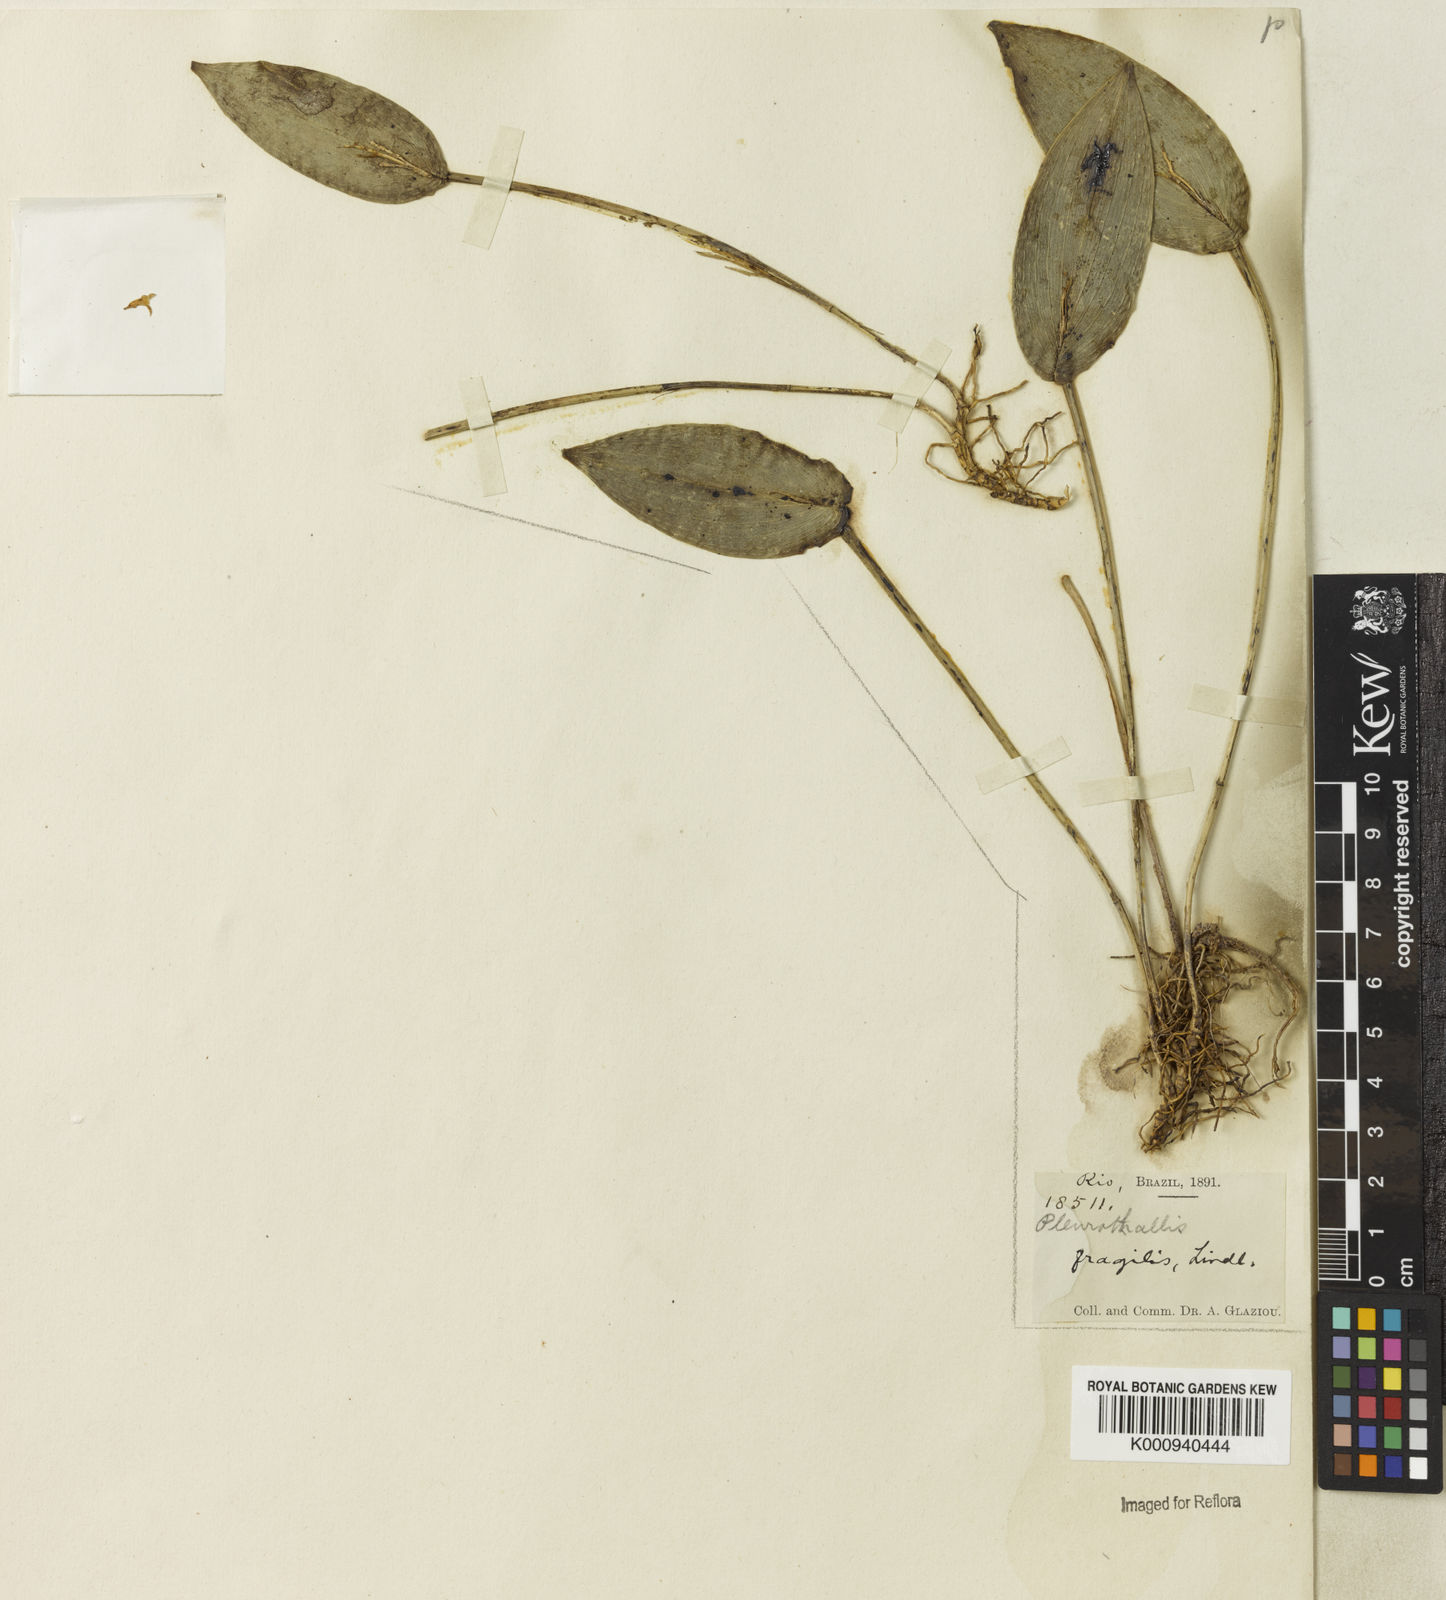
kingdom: Plantae
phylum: Tracheophyta
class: Liliopsida
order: Asparagales
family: Orchidaceae
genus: Acianthera
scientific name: Acianthera
